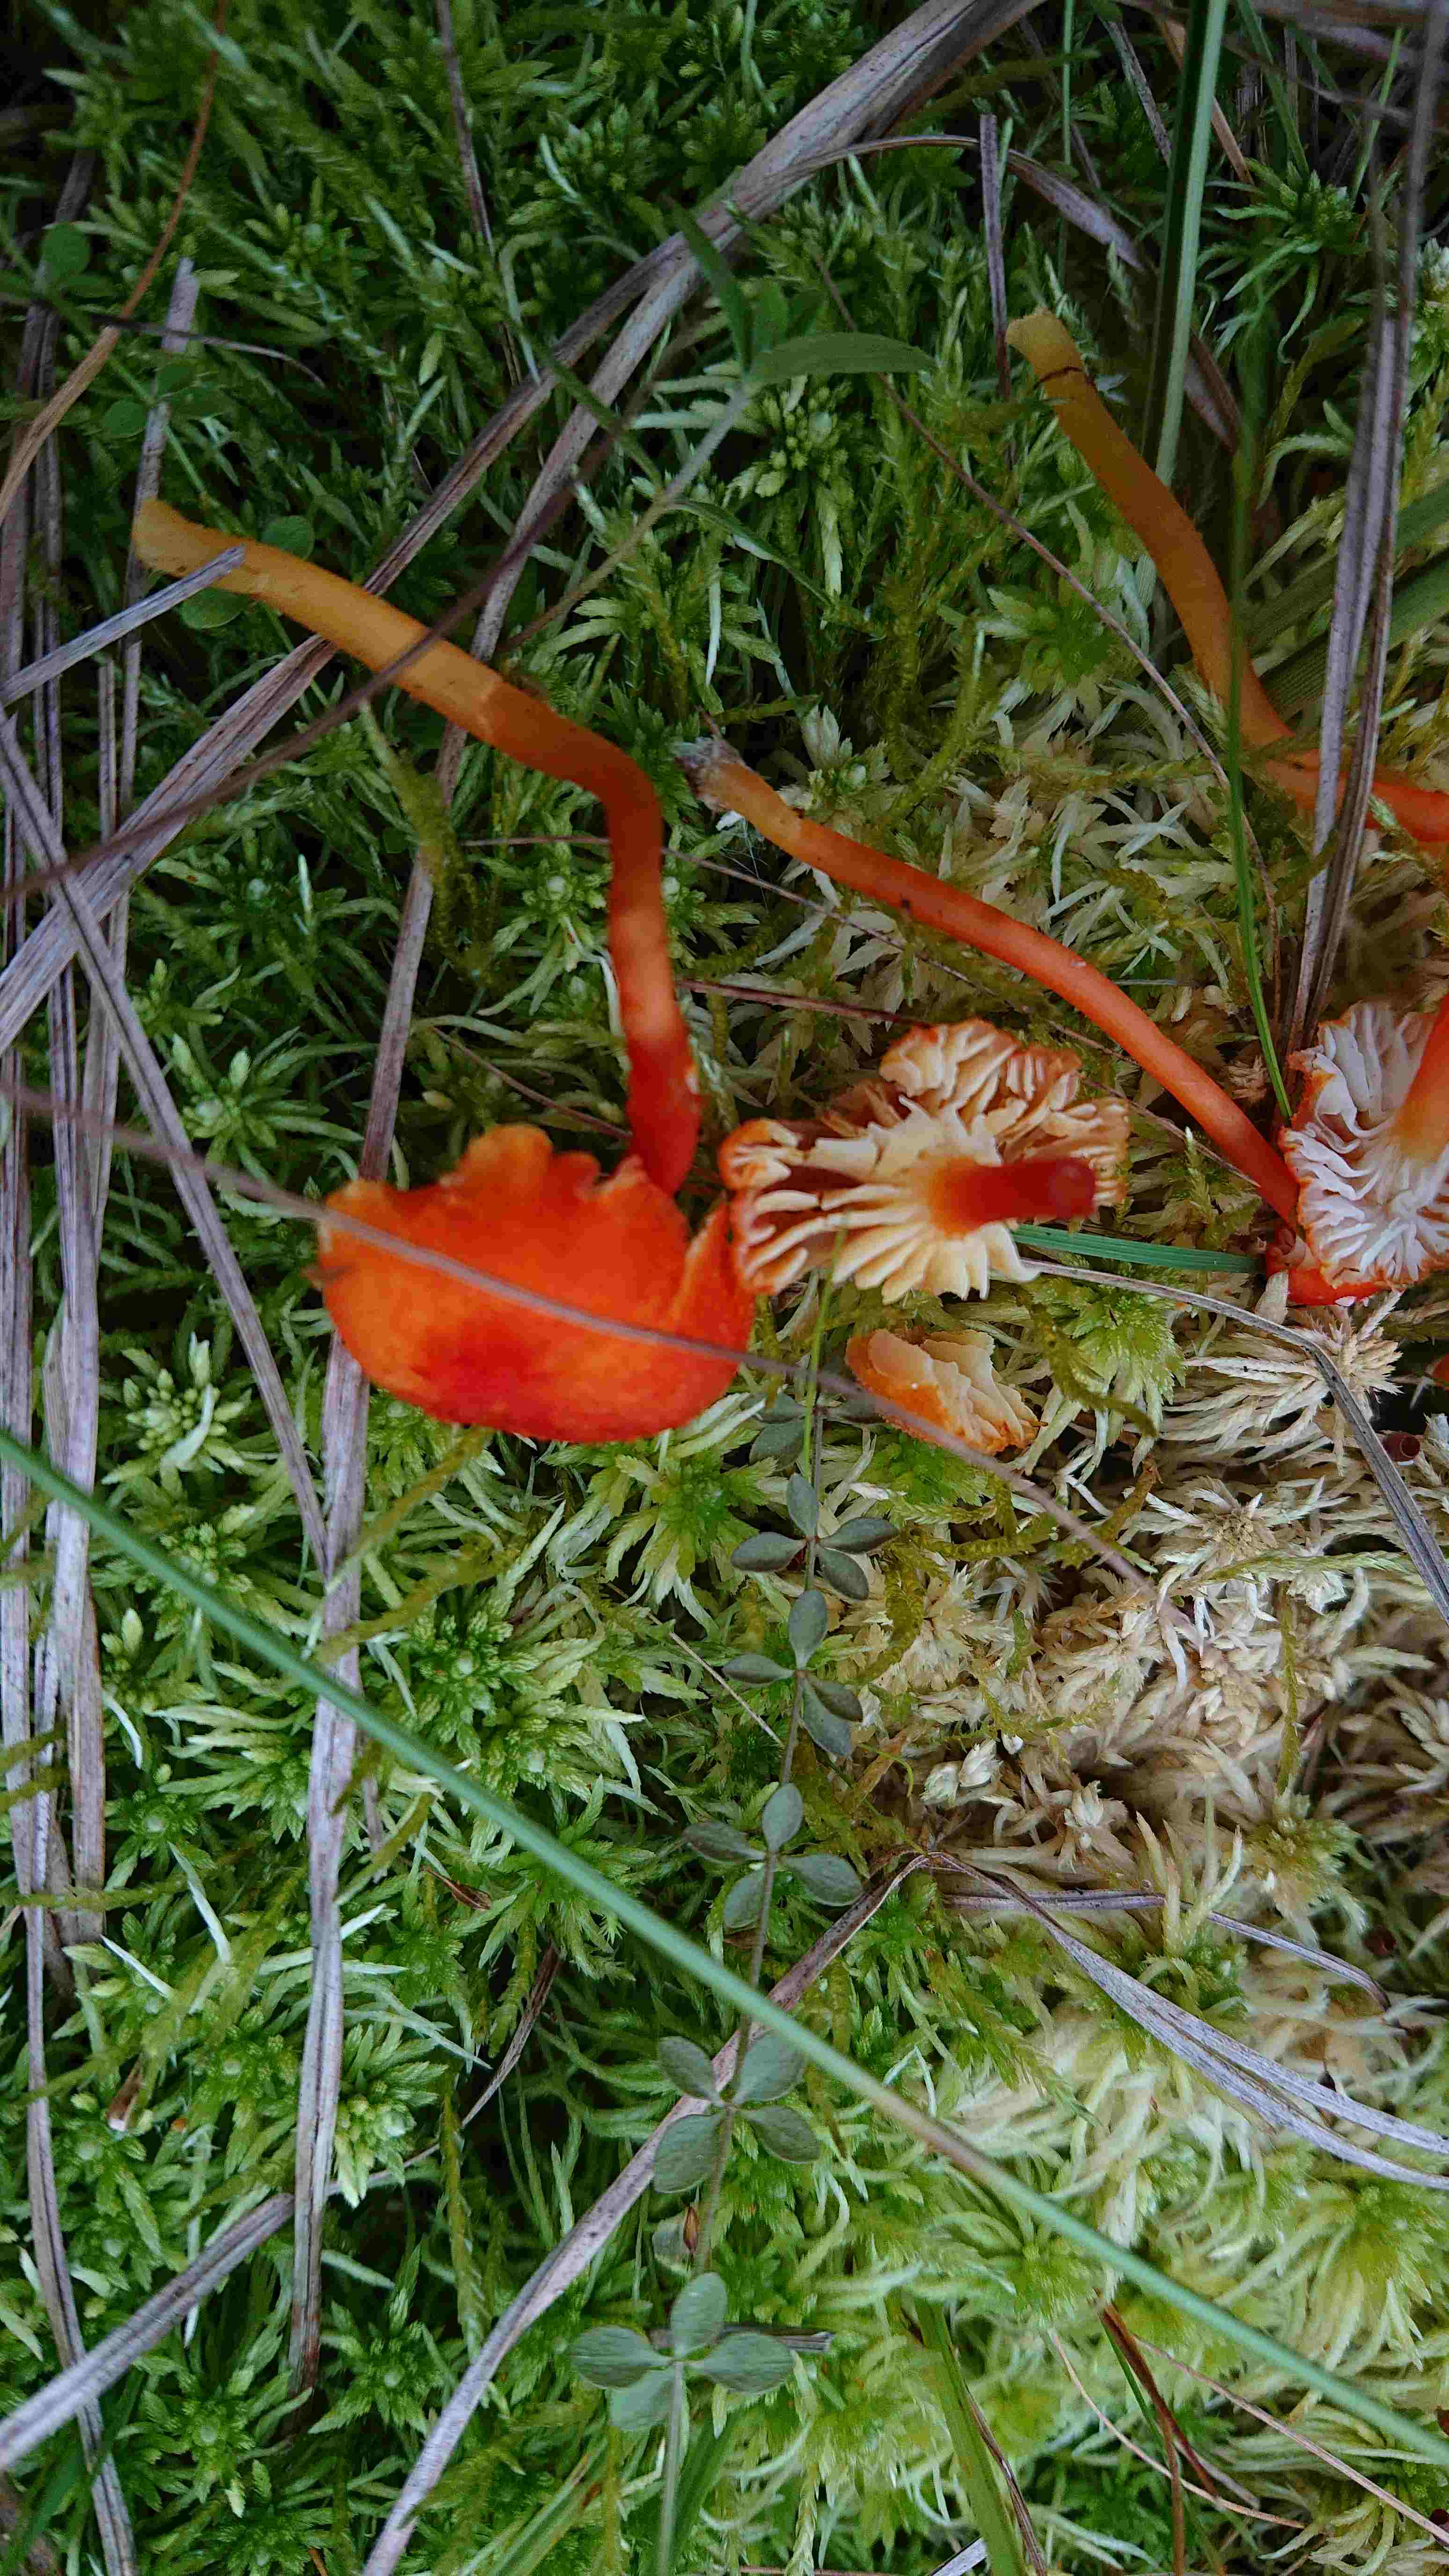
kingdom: Fungi
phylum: Basidiomycota
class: Agaricomycetes
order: Agaricales
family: Hygrophoraceae
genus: Hygrocybe
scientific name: Hygrocybe coccineocrenata
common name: tørvemos-vokshat
